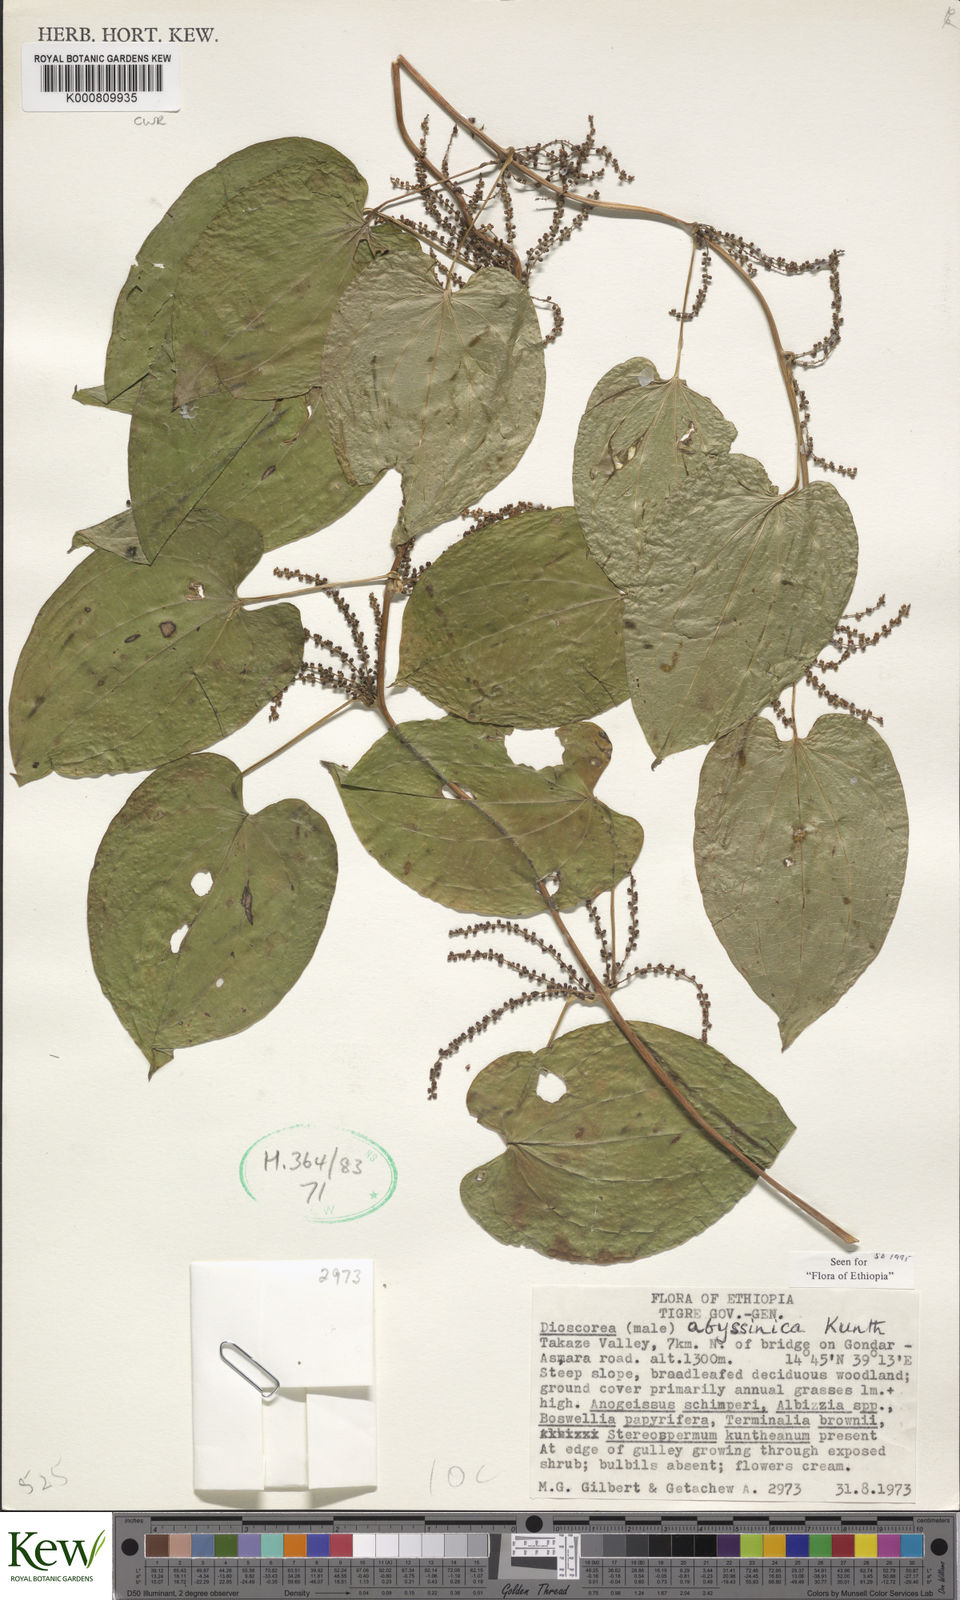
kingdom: Plantae
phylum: Tracheophyta
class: Liliopsida
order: Dioscoreales
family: Dioscoreaceae
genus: Dioscorea
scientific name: Dioscorea abyssinica
